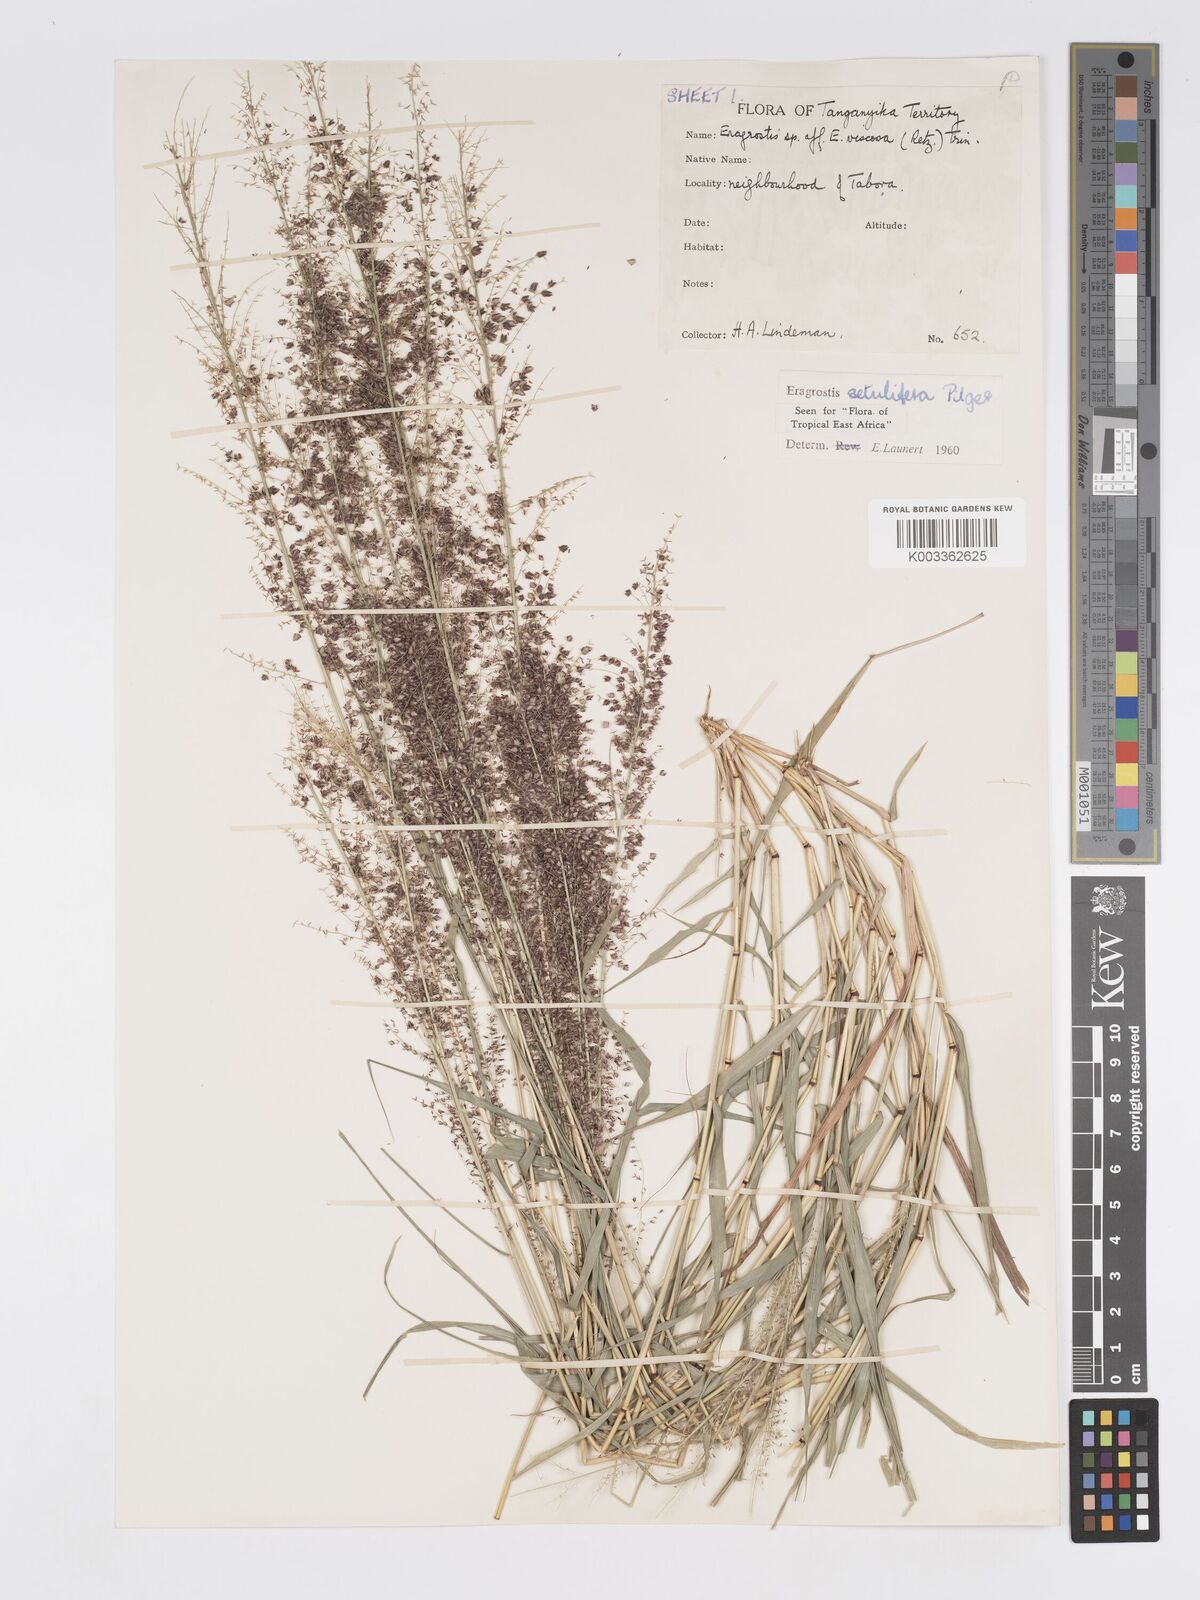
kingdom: Plantae
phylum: Tracheophyta
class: Liliopsida
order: Poales
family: Poaceae
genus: Eragrostis
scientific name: Eragrostis setulifera
